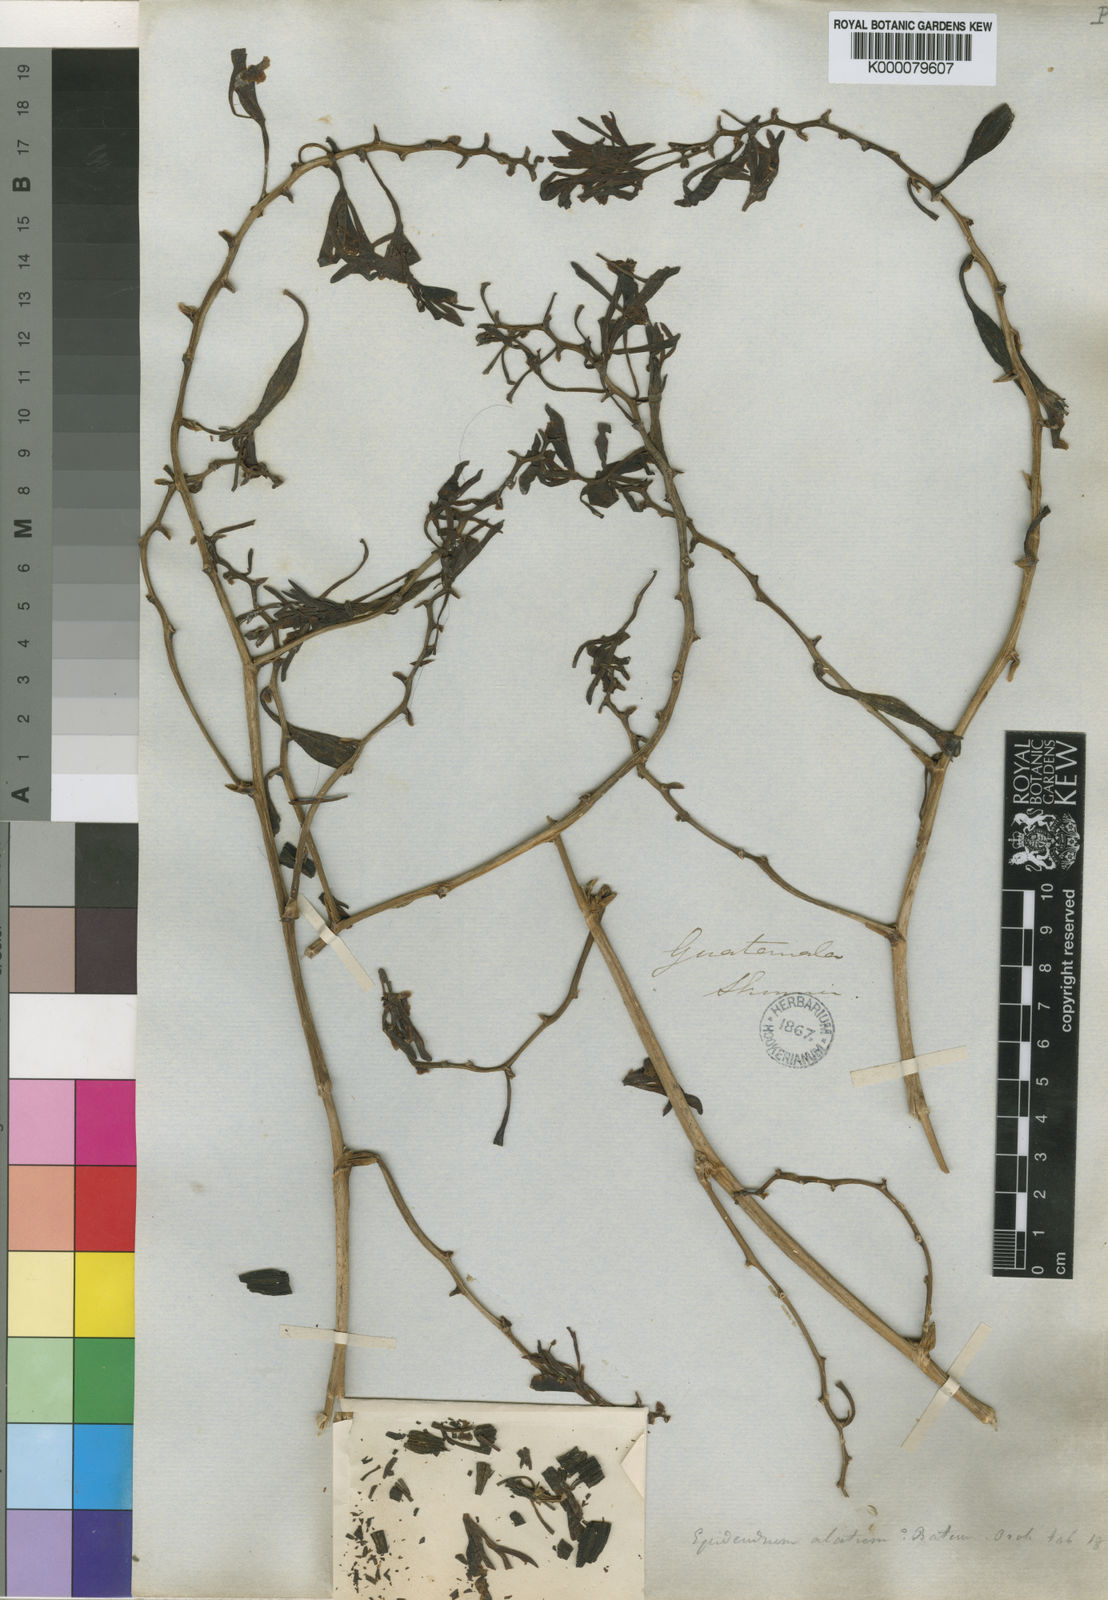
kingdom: Plantae
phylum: Tracheophyta
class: Liliopsida
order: Asparagales
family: Orchidaceae
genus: Encyclia
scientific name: Encyclia alata
